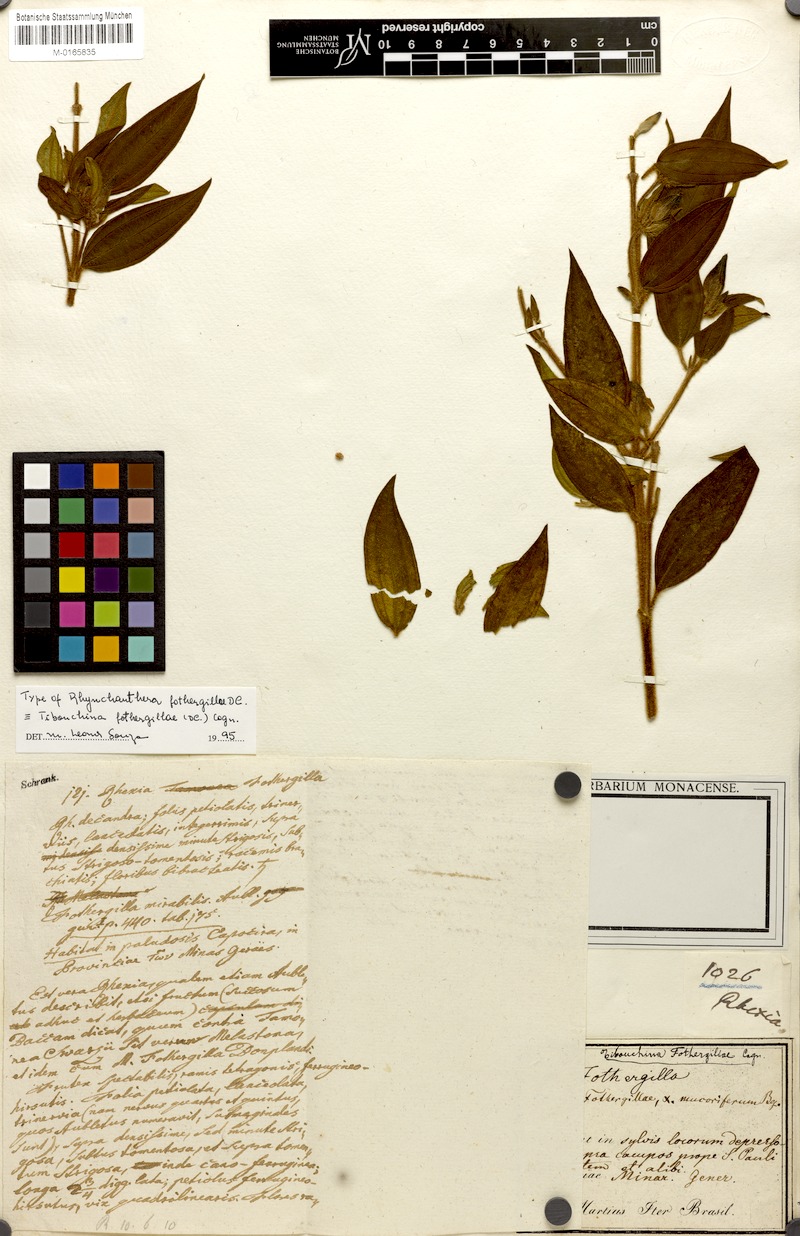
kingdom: Plantae
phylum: Tracheophyta
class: Magnoliopsida
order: Myrtales
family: Melastomataceae
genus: Pleroma
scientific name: Pleroma fothergillae
